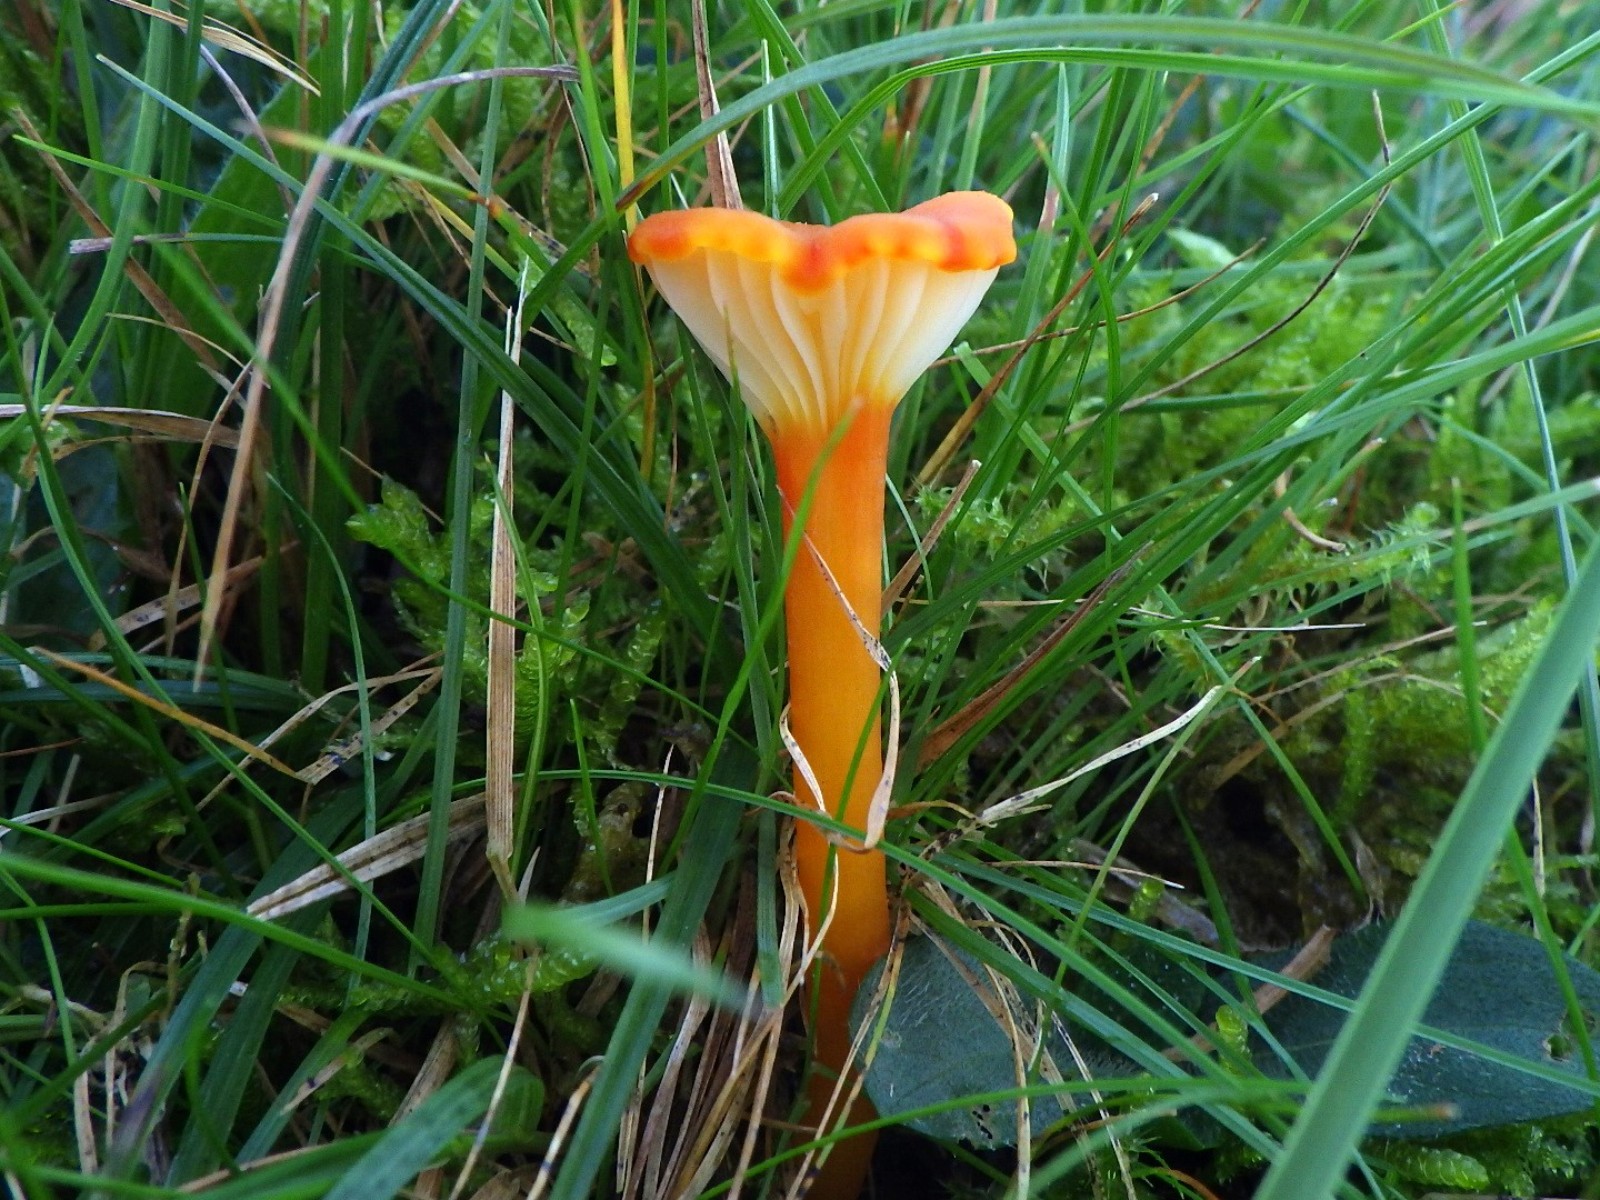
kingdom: Fungi
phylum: Basidiomycota
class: Agaricomycetes
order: Agaricales
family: Hygrophoraceae
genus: Hygrocybe
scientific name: Hygrocybe cantharellus
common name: kantarel-vokshat
